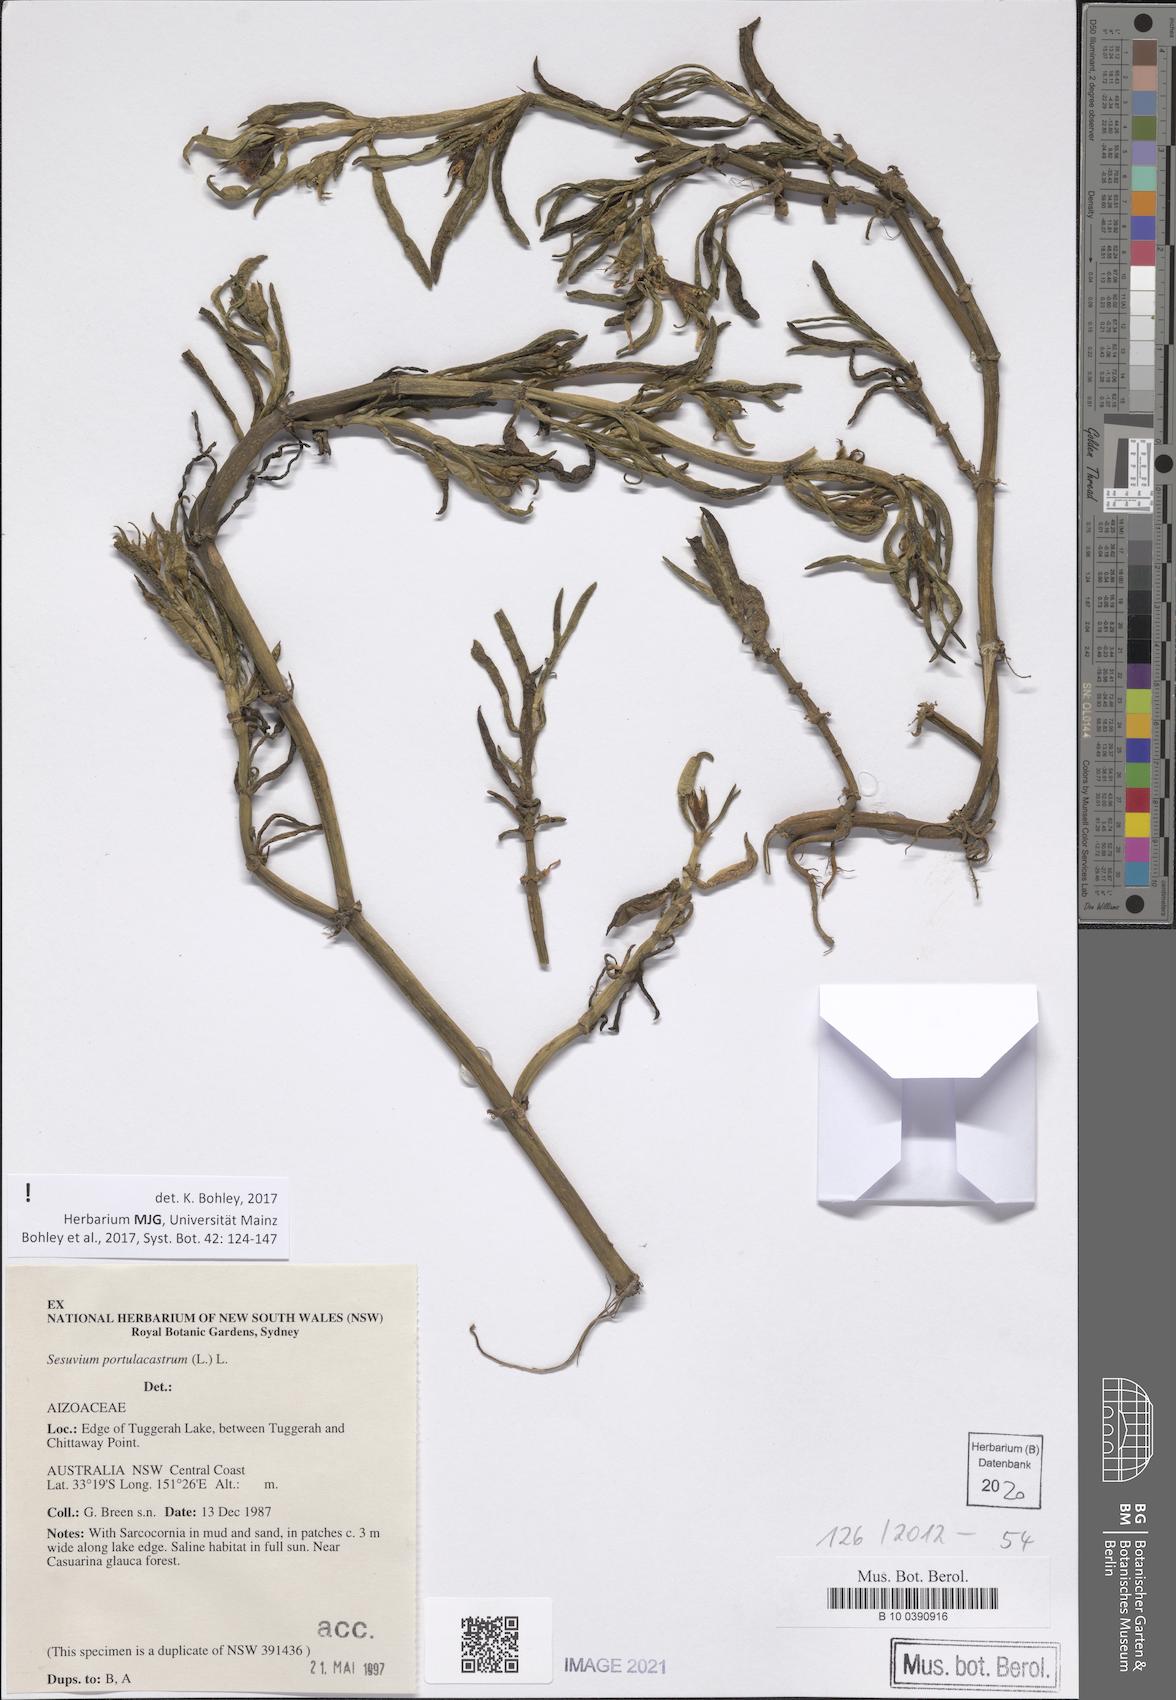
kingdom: Plantae
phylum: Tracheophyta
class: Magnoliopsida
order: Caryophyllales
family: Aizoaceae
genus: Sesuvium
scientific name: Sesuvium portulacastrum
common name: Sea-purslane
